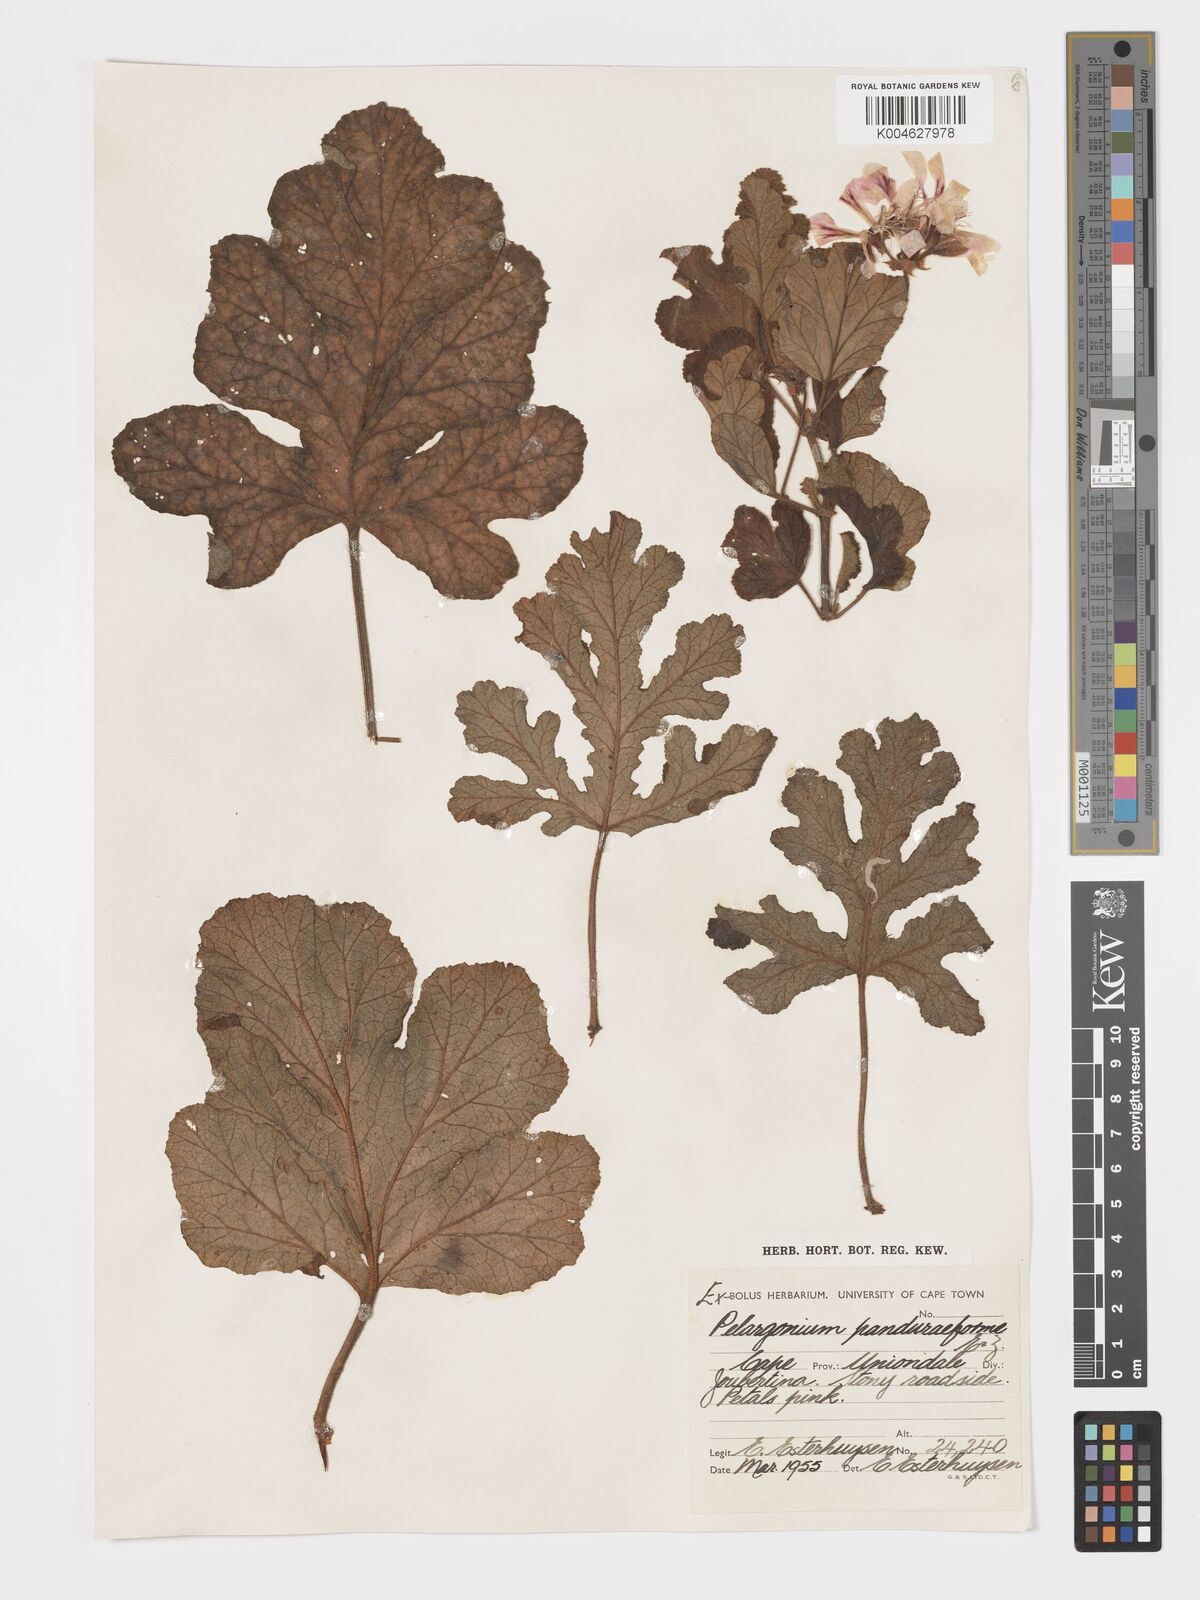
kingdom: Plantae
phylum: Tracheophyta
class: Magnoliopsida
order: Geraniales
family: Geraniaceae
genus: Pelargonium
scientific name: Pelargonium panduriforme
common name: Oakleaf garden geranium
